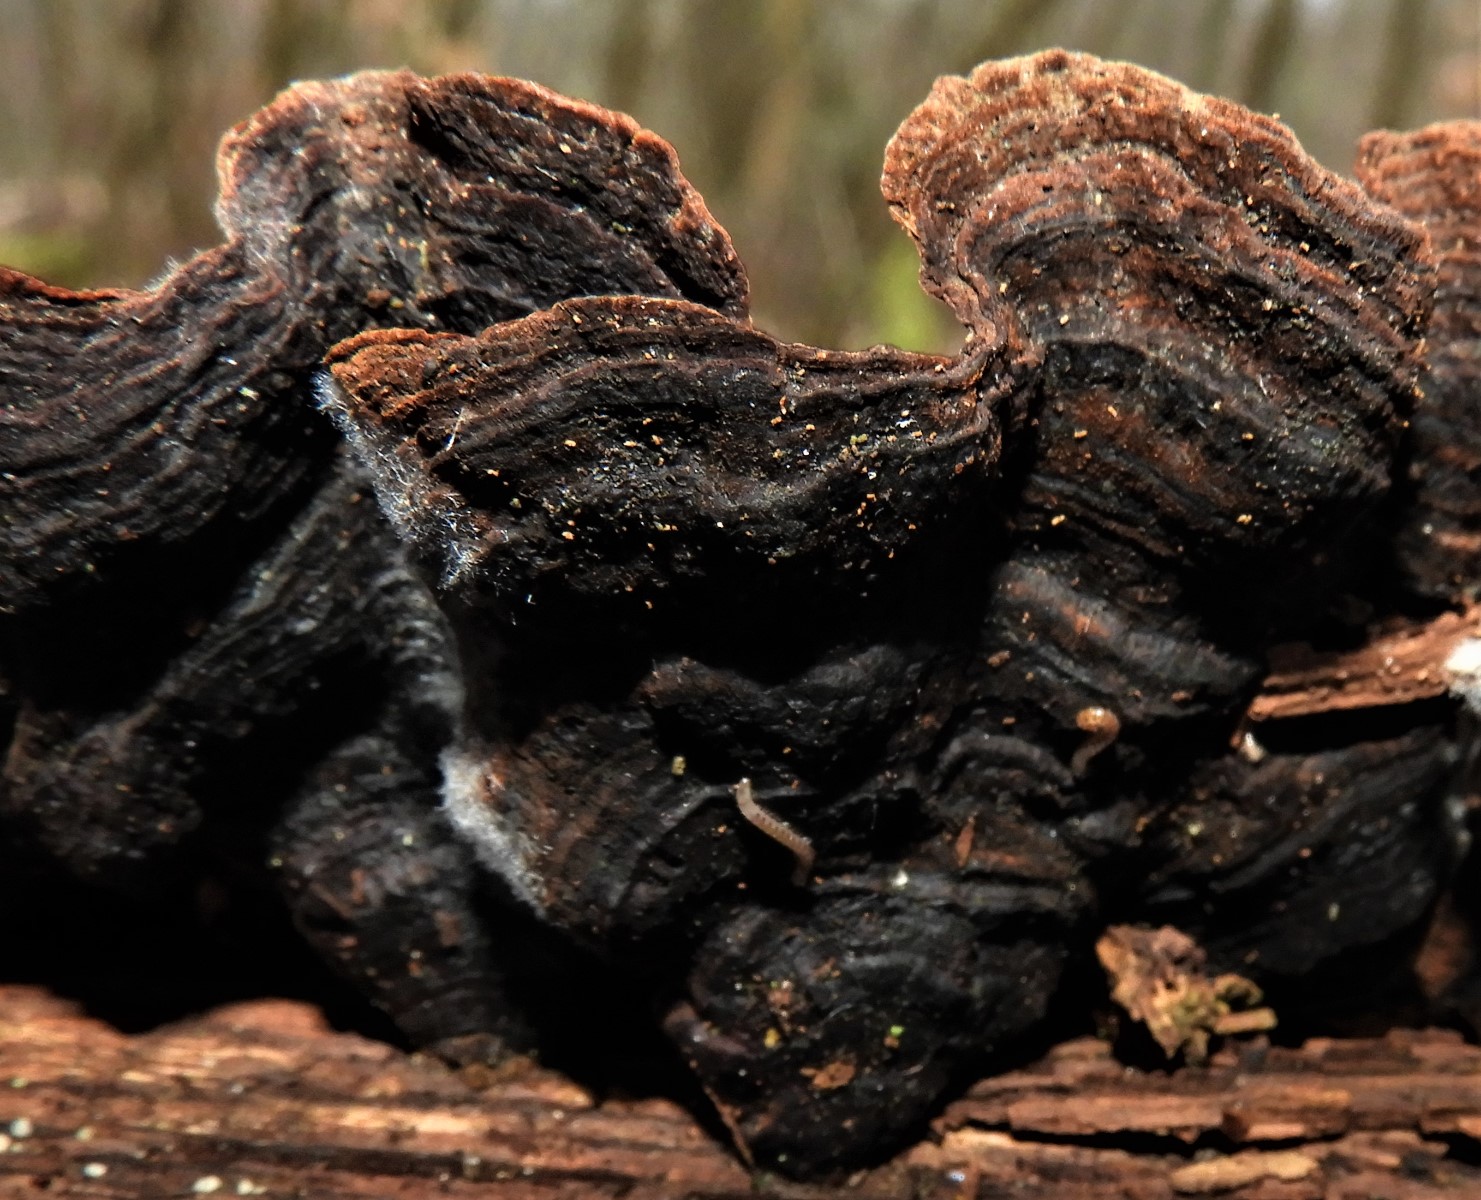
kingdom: Fungi
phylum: Basidiomycota
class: Agaricomycetes
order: Hymenochaetales
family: Hymenochaetaceae
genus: Hymenochaete
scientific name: Hymenochaete rubiginosa
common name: stiv ruslædersvamp
